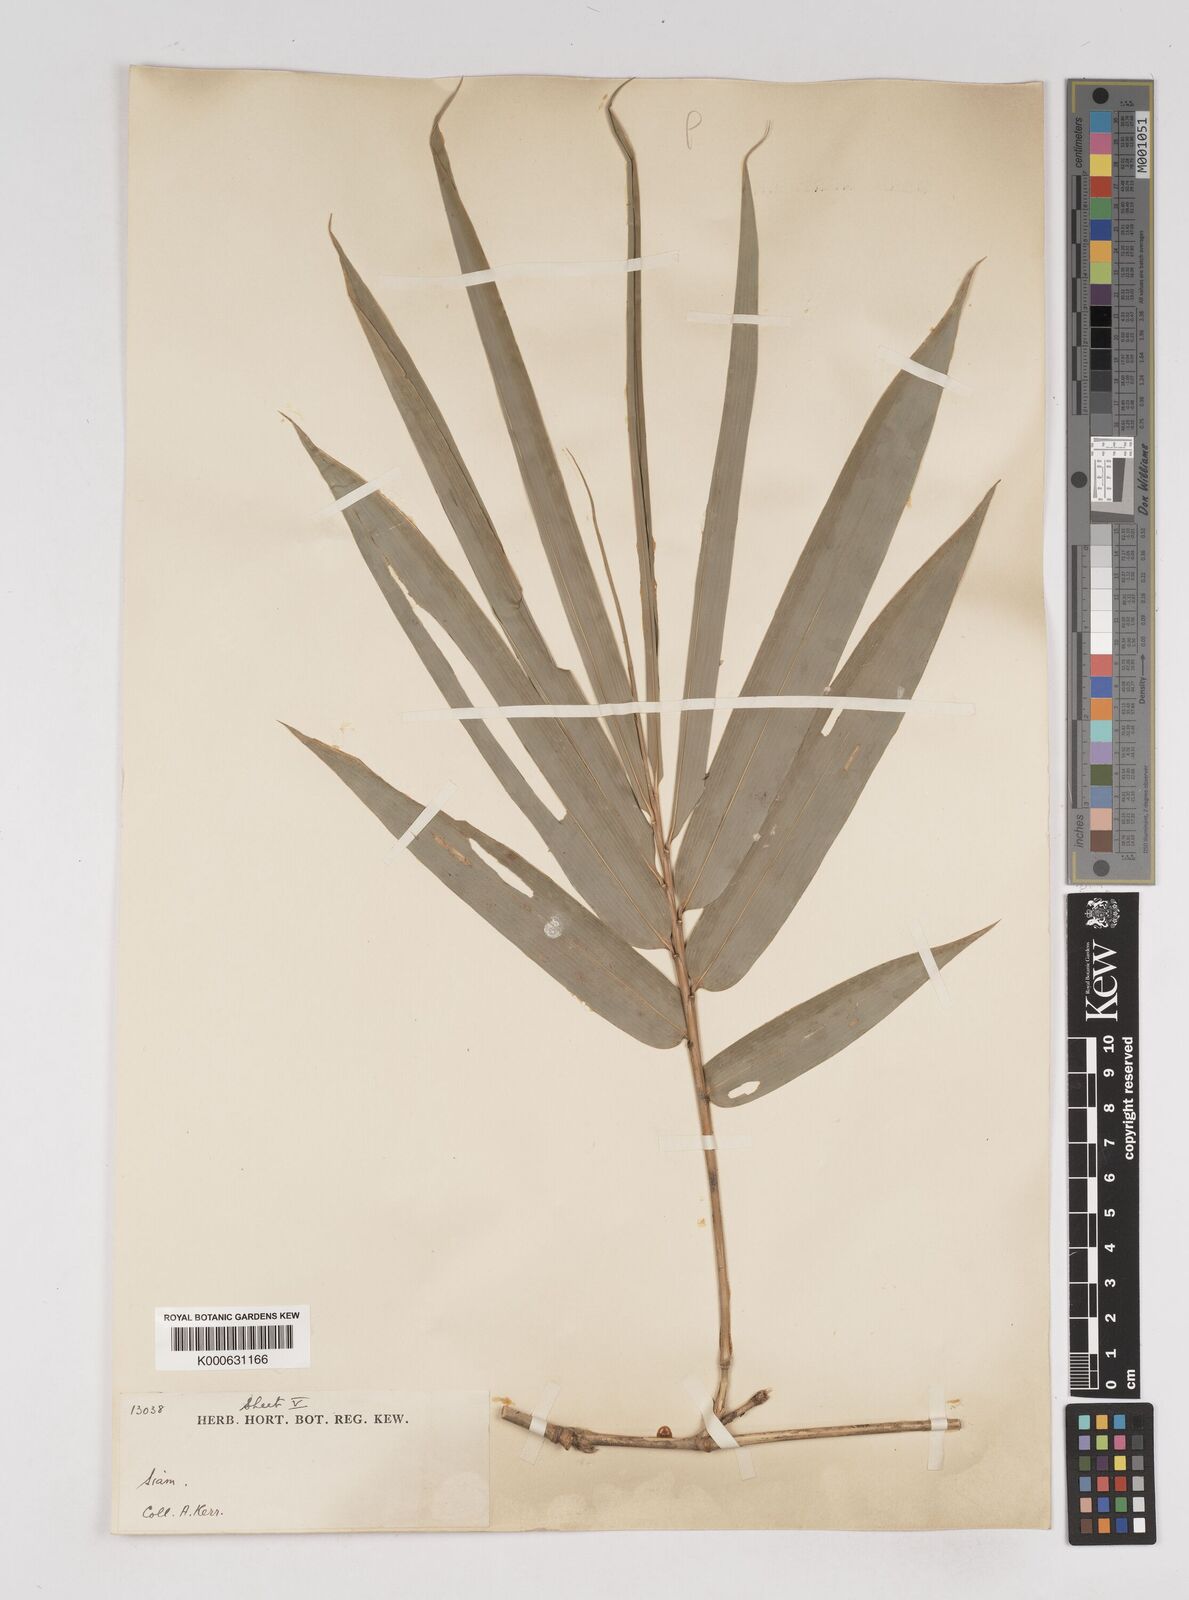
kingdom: Plantae
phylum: Tracheophyta
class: Liliopsida
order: Poales
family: Poaceae
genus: Gigantochloa
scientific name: Gigantochloa
